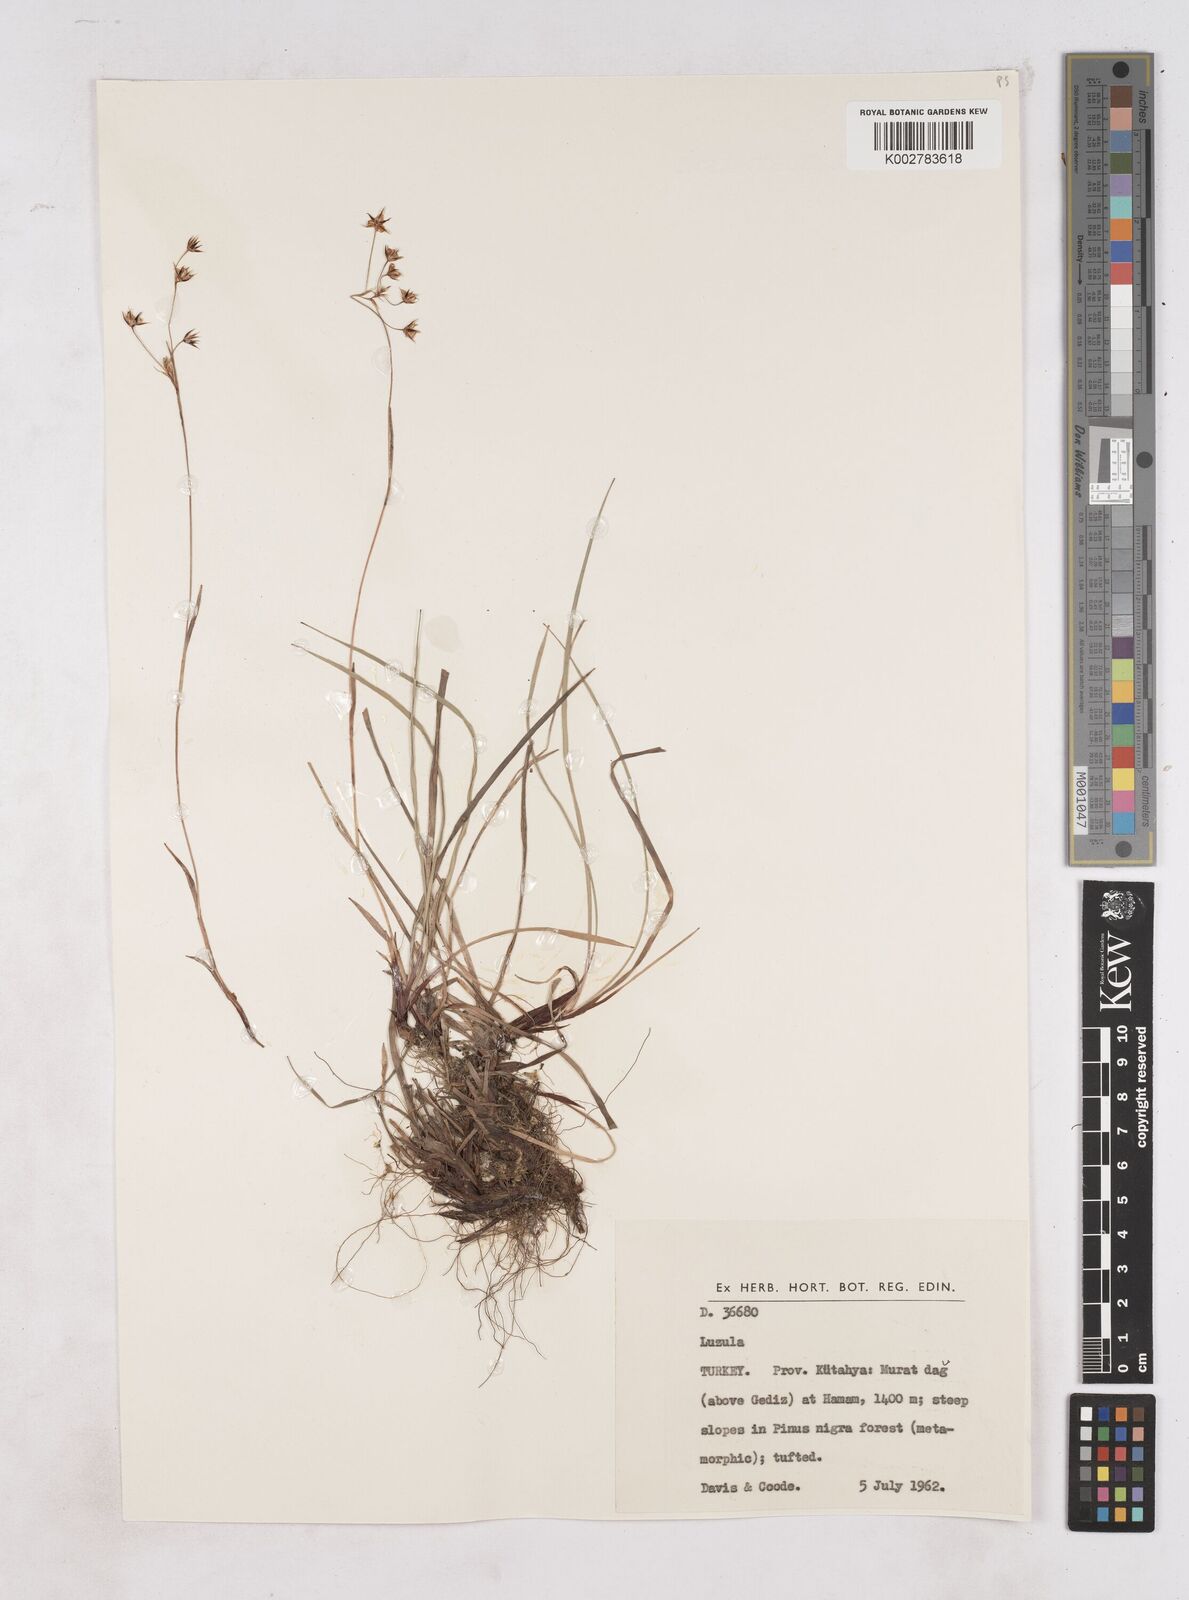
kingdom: Plantae
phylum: Tracheophyta
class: Liliopsida
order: Poales
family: Juncaceae
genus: Luzula
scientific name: Luzula forsteri
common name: Southern wood-rush
